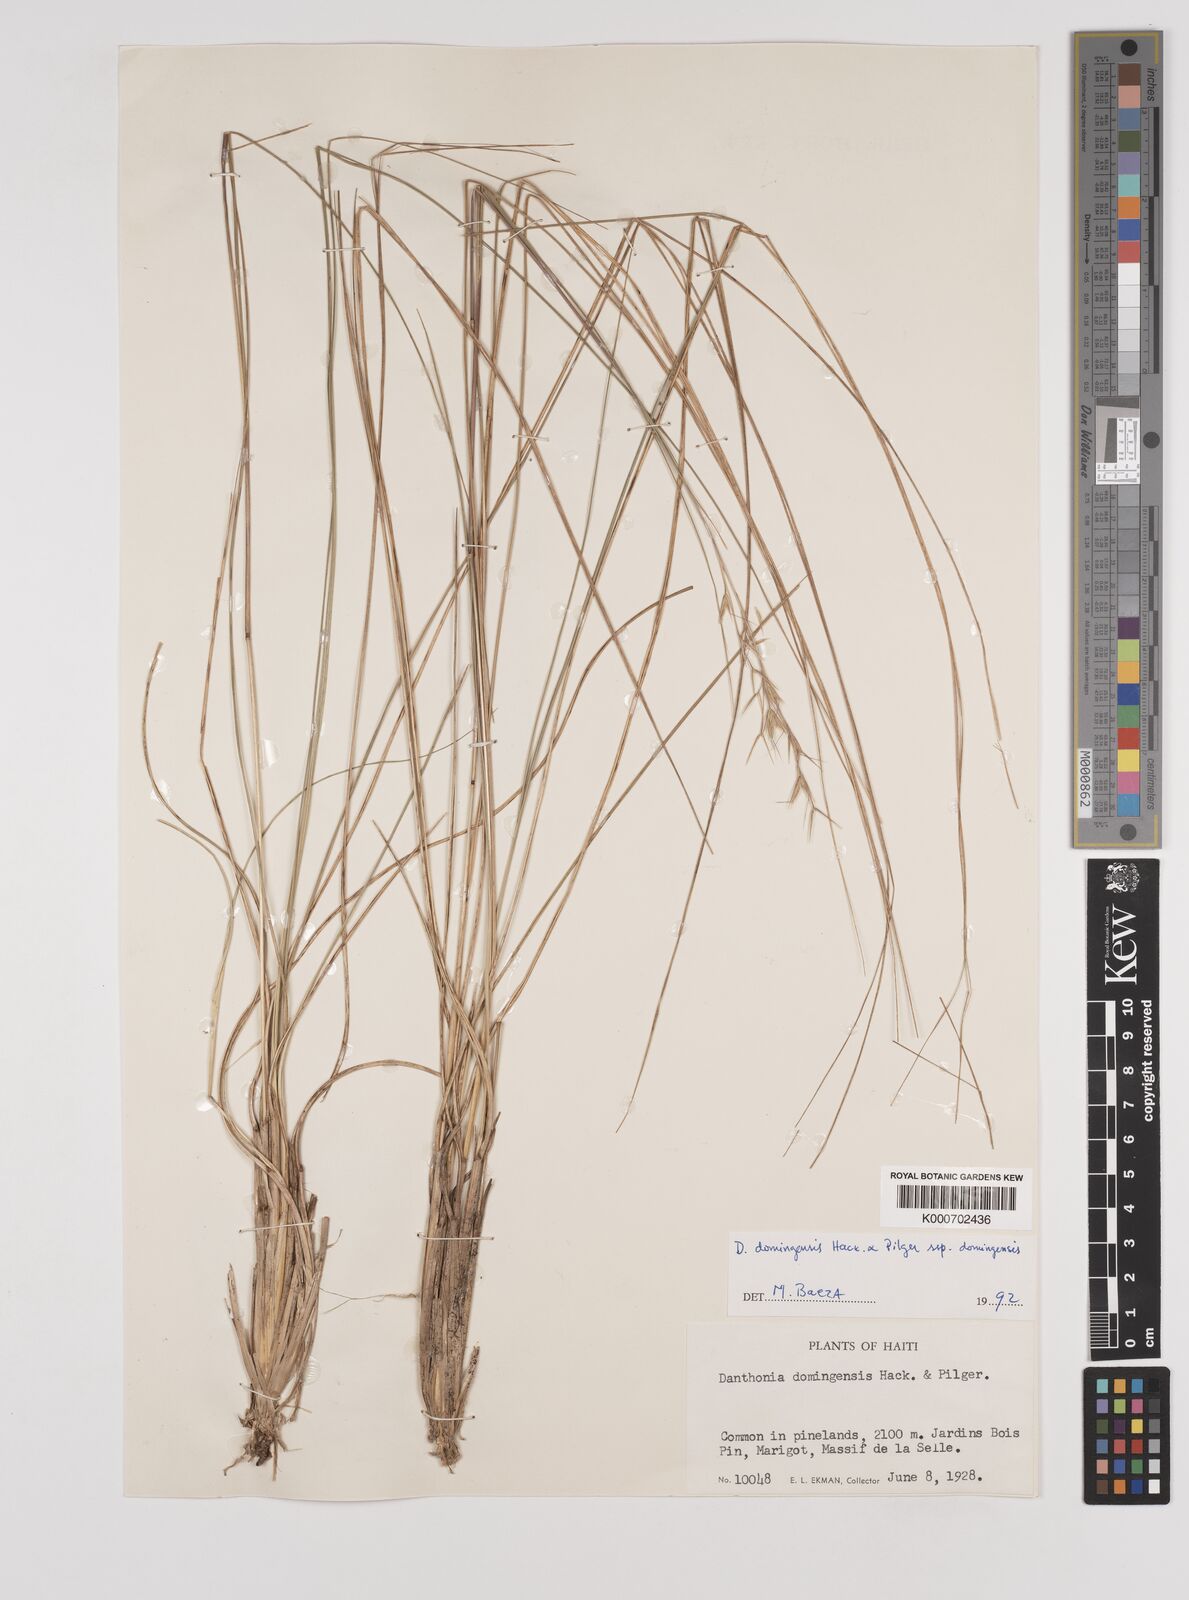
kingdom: Plantae
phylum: Tracheophyta
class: Liliopsida
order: Poales
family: Poaceae
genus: Danthonia
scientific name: Danthonia domingensis
